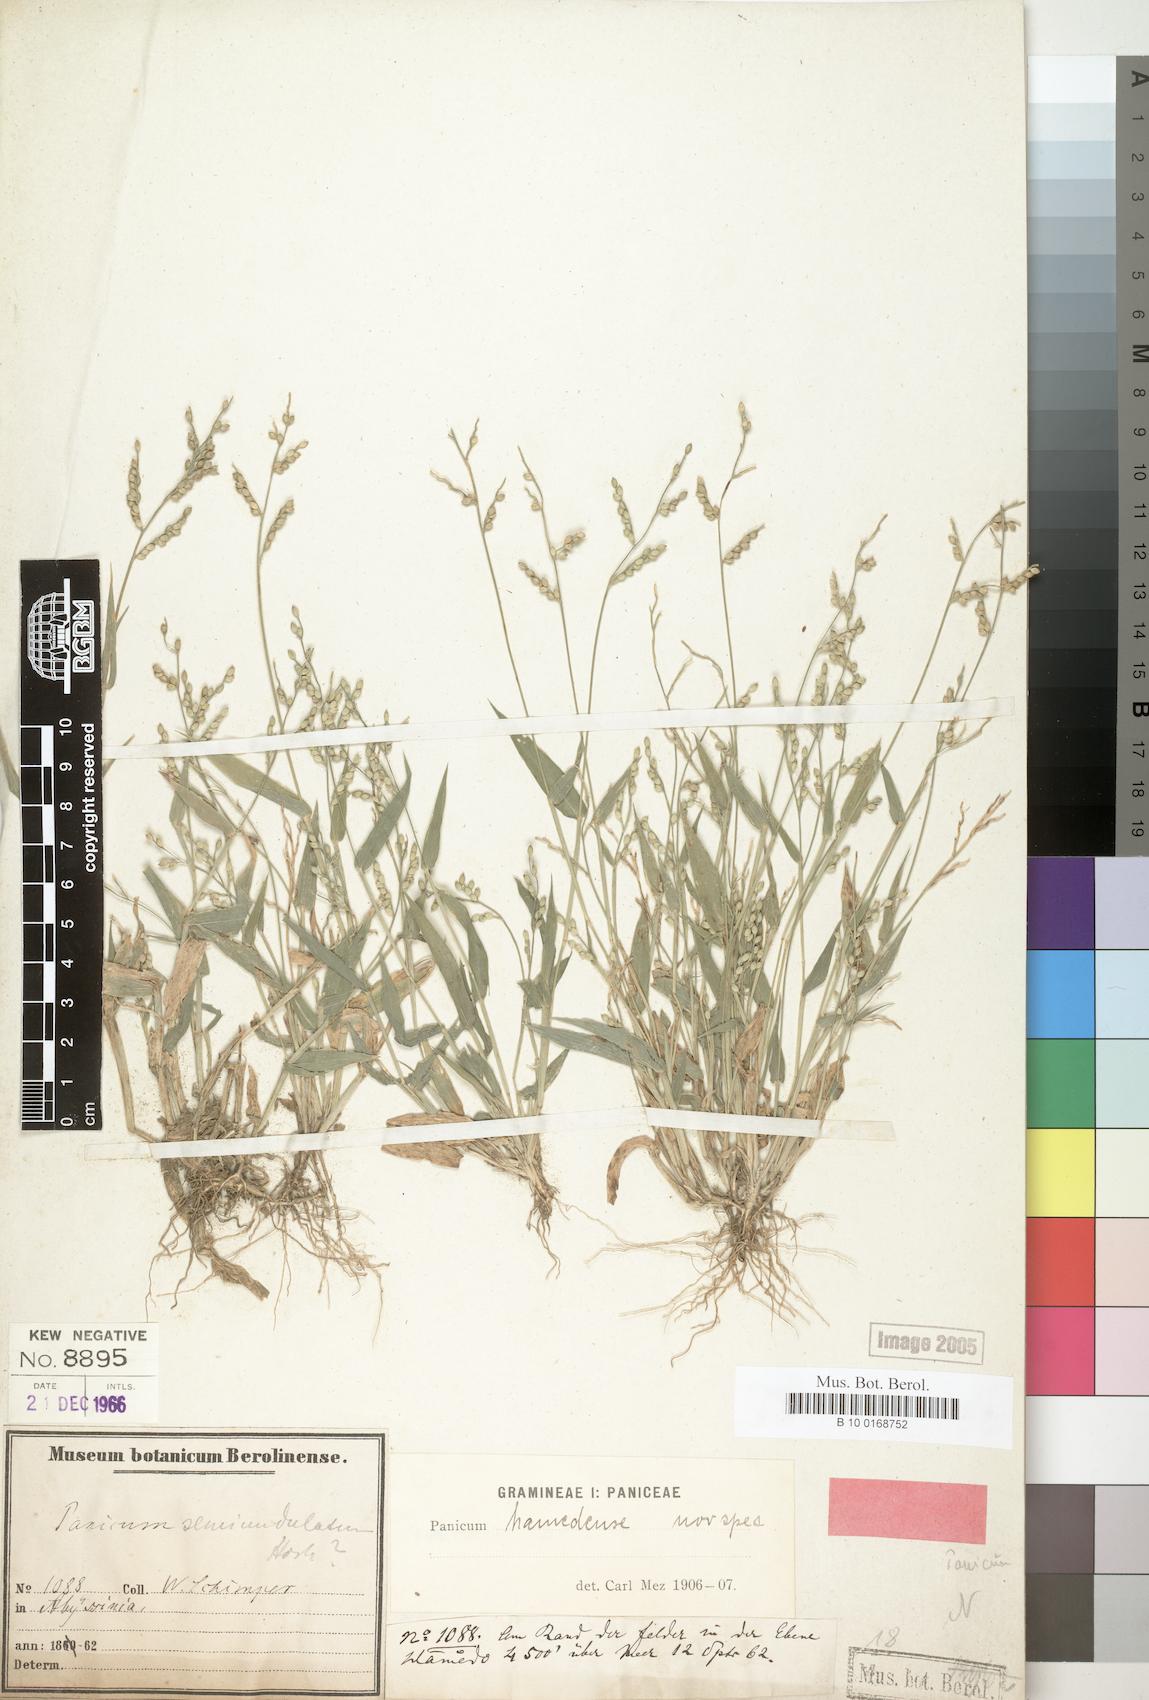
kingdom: Plantae
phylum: Tracheophyta
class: Liliopsida
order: Poales
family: Poaceae
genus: Urochloa
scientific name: Urochloa lata
